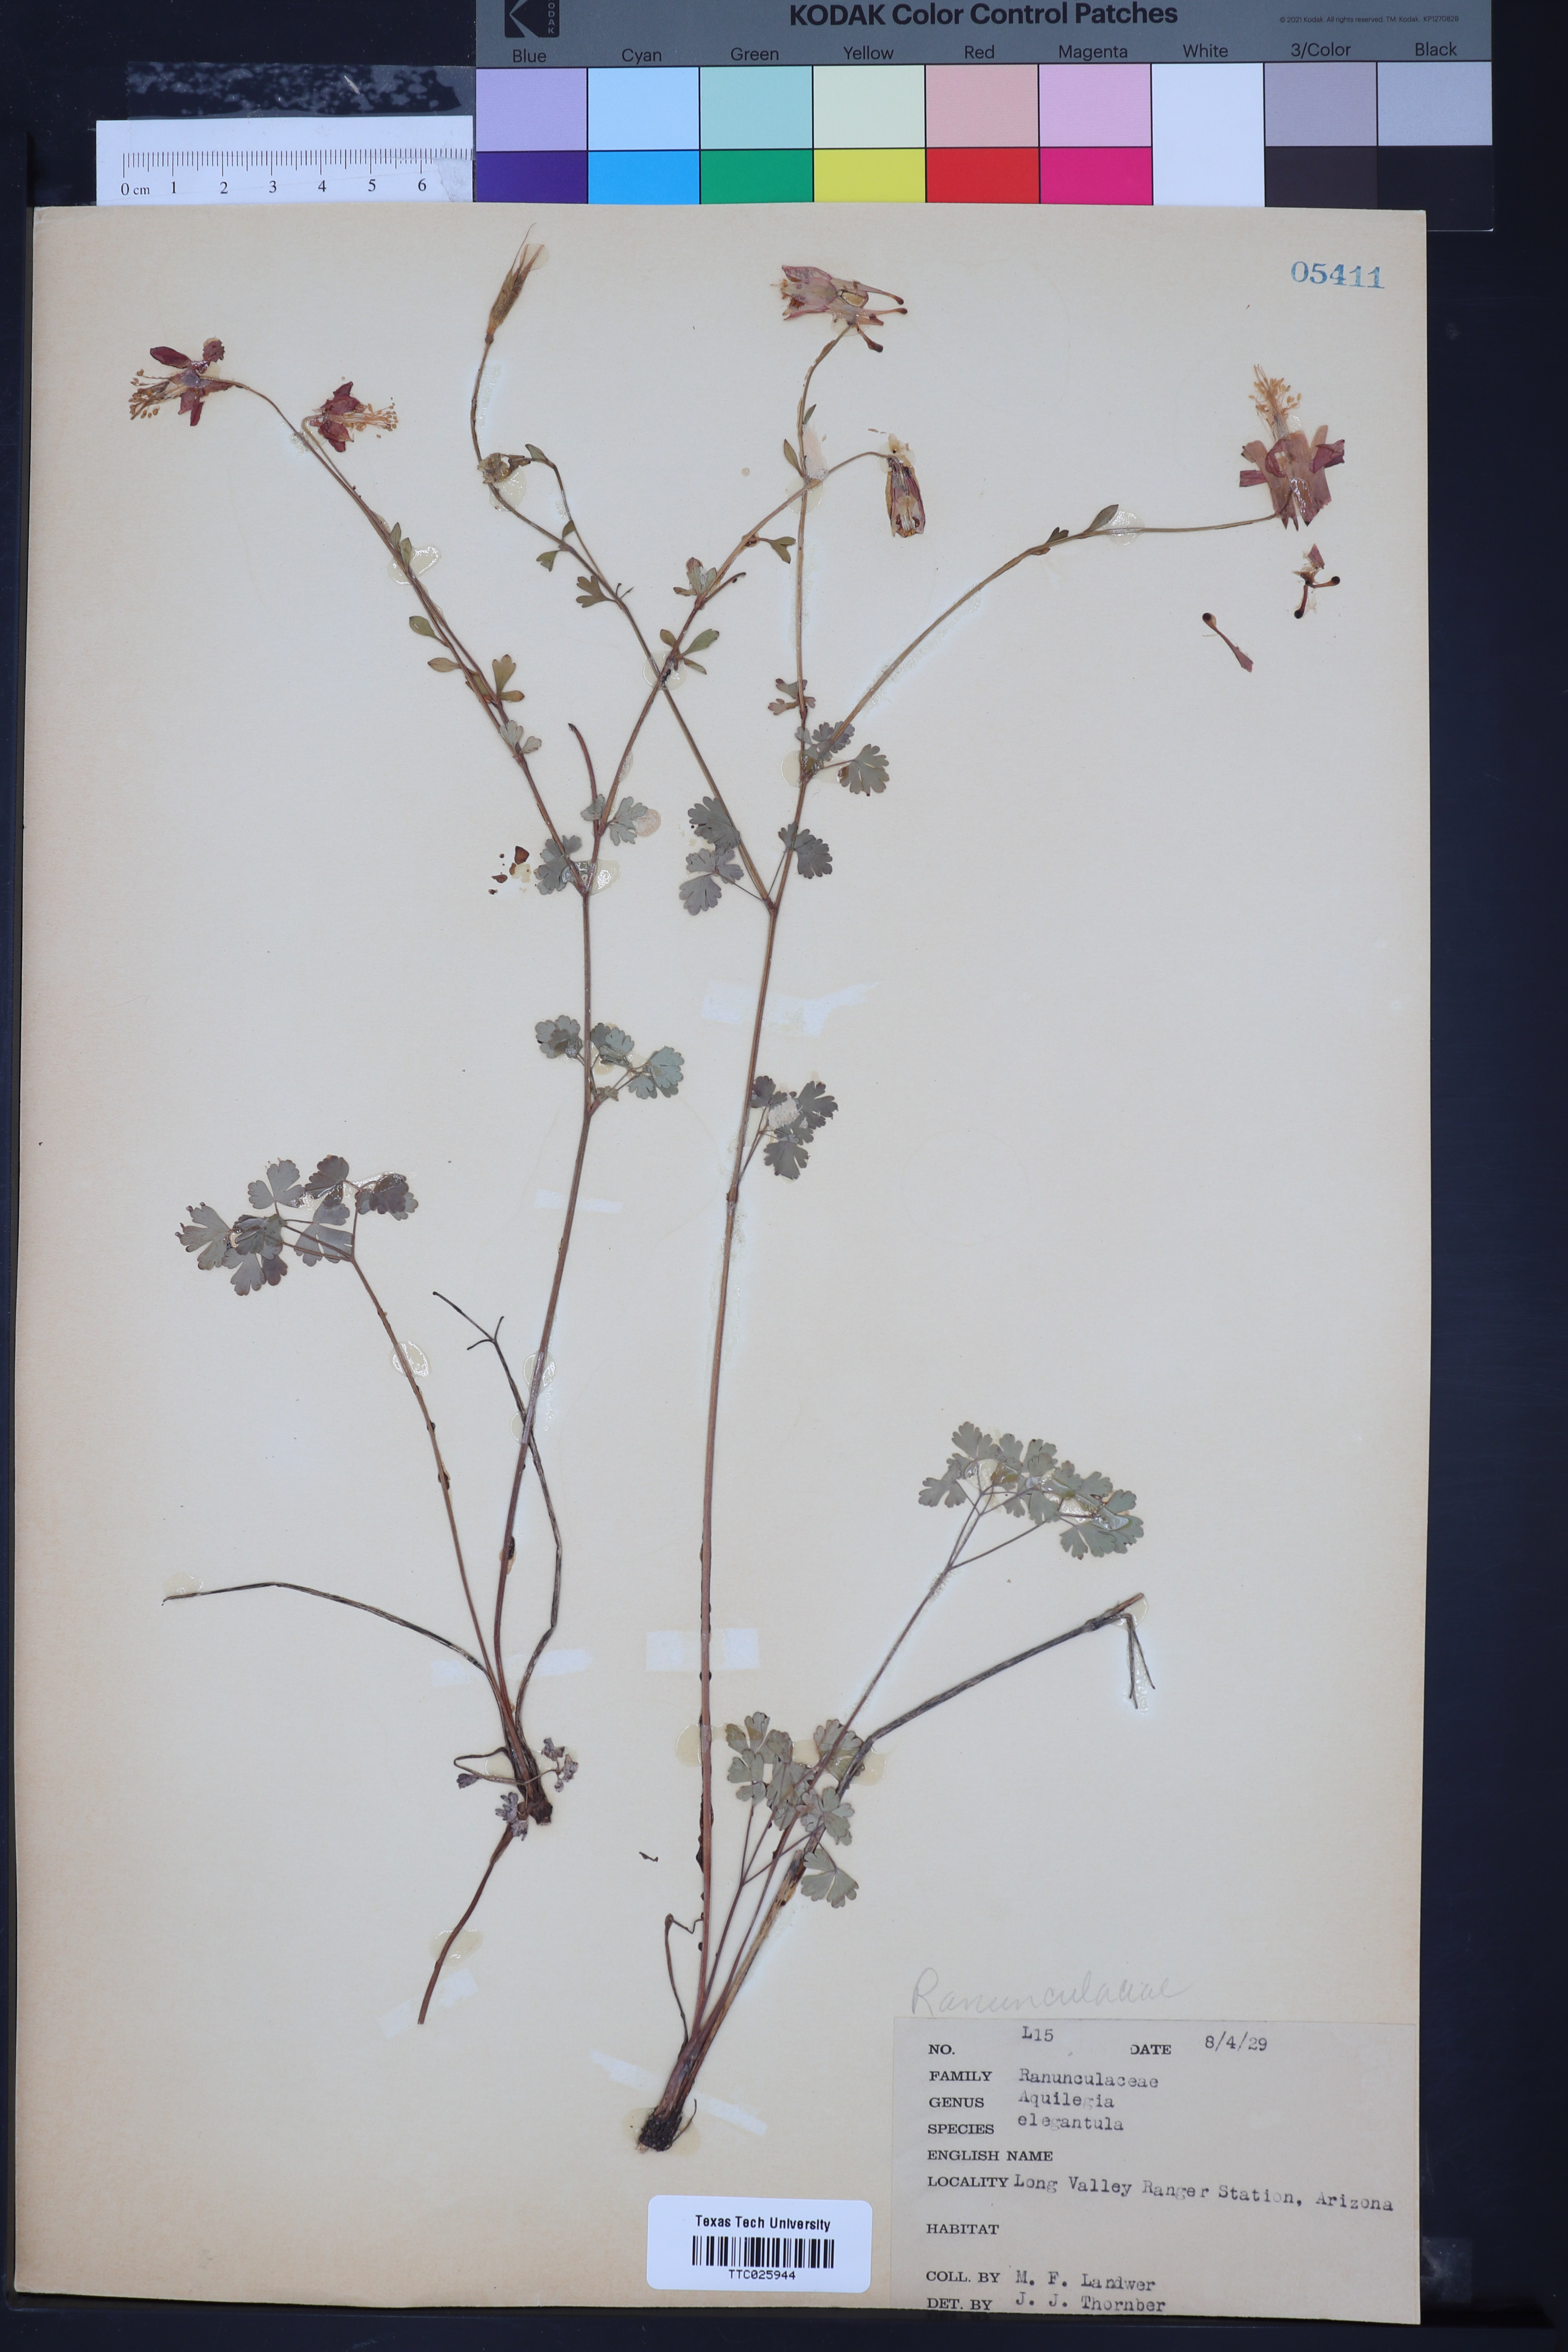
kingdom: Plantae
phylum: Tracheophyta
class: Magnoliopsida
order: Ranunculales
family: Ranunculaceae
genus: Aquilegia
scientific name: Aquilegia elegantula
